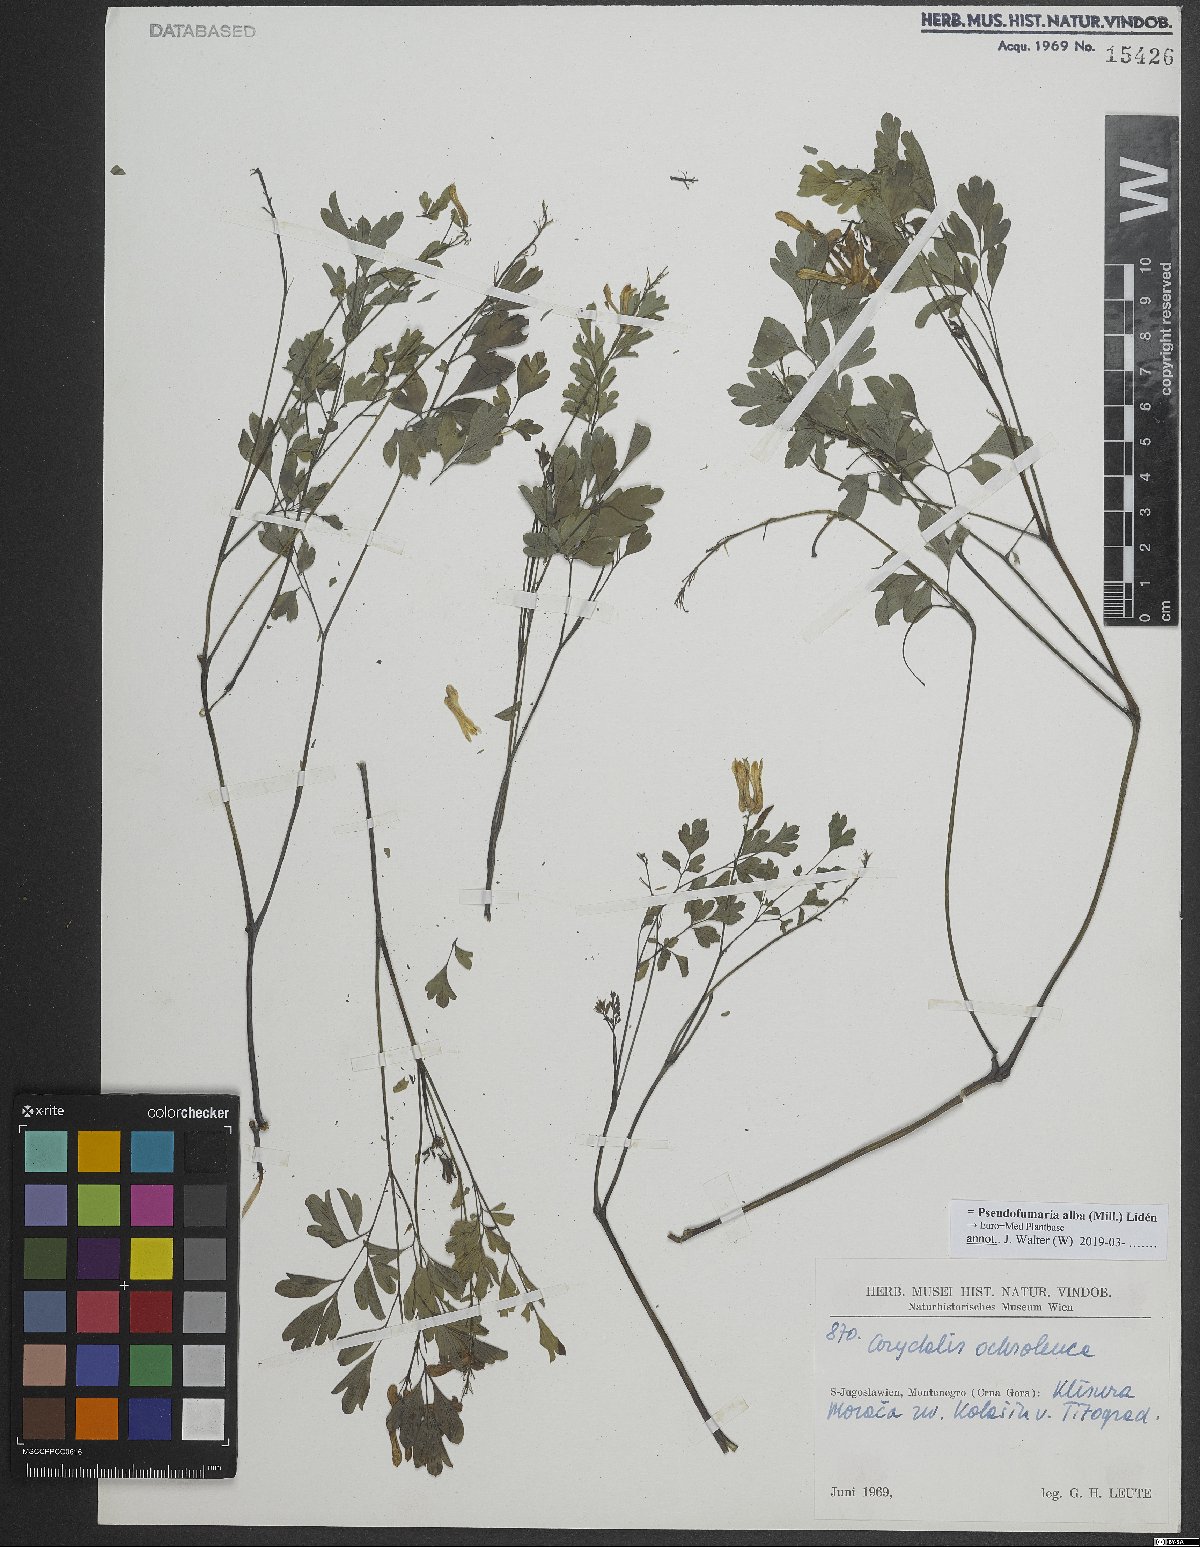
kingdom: Plantae
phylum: Tracheophyta
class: Magnoliopsida
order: Ranunculales
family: Papaveraceae
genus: Pseudofumaria
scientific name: Pseudofumaria alba
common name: Pale corydalis
